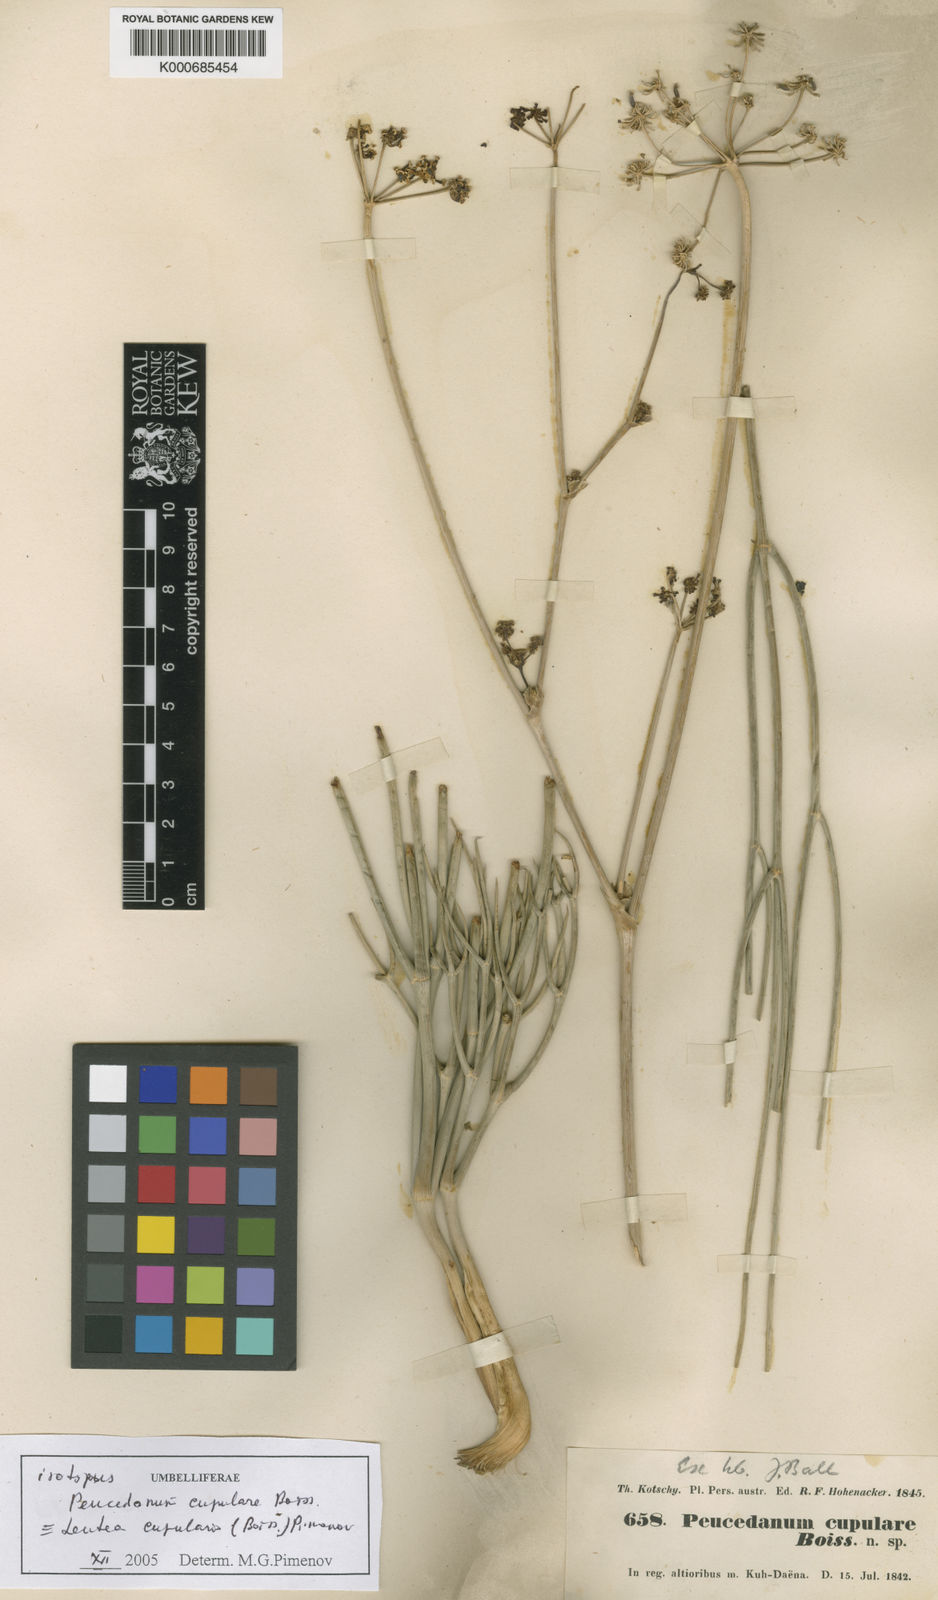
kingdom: Plantae
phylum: Tracheophyta
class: Magnoliopsida
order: Apiales
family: Apiaceae
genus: Ferula
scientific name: Ferula cupularis
